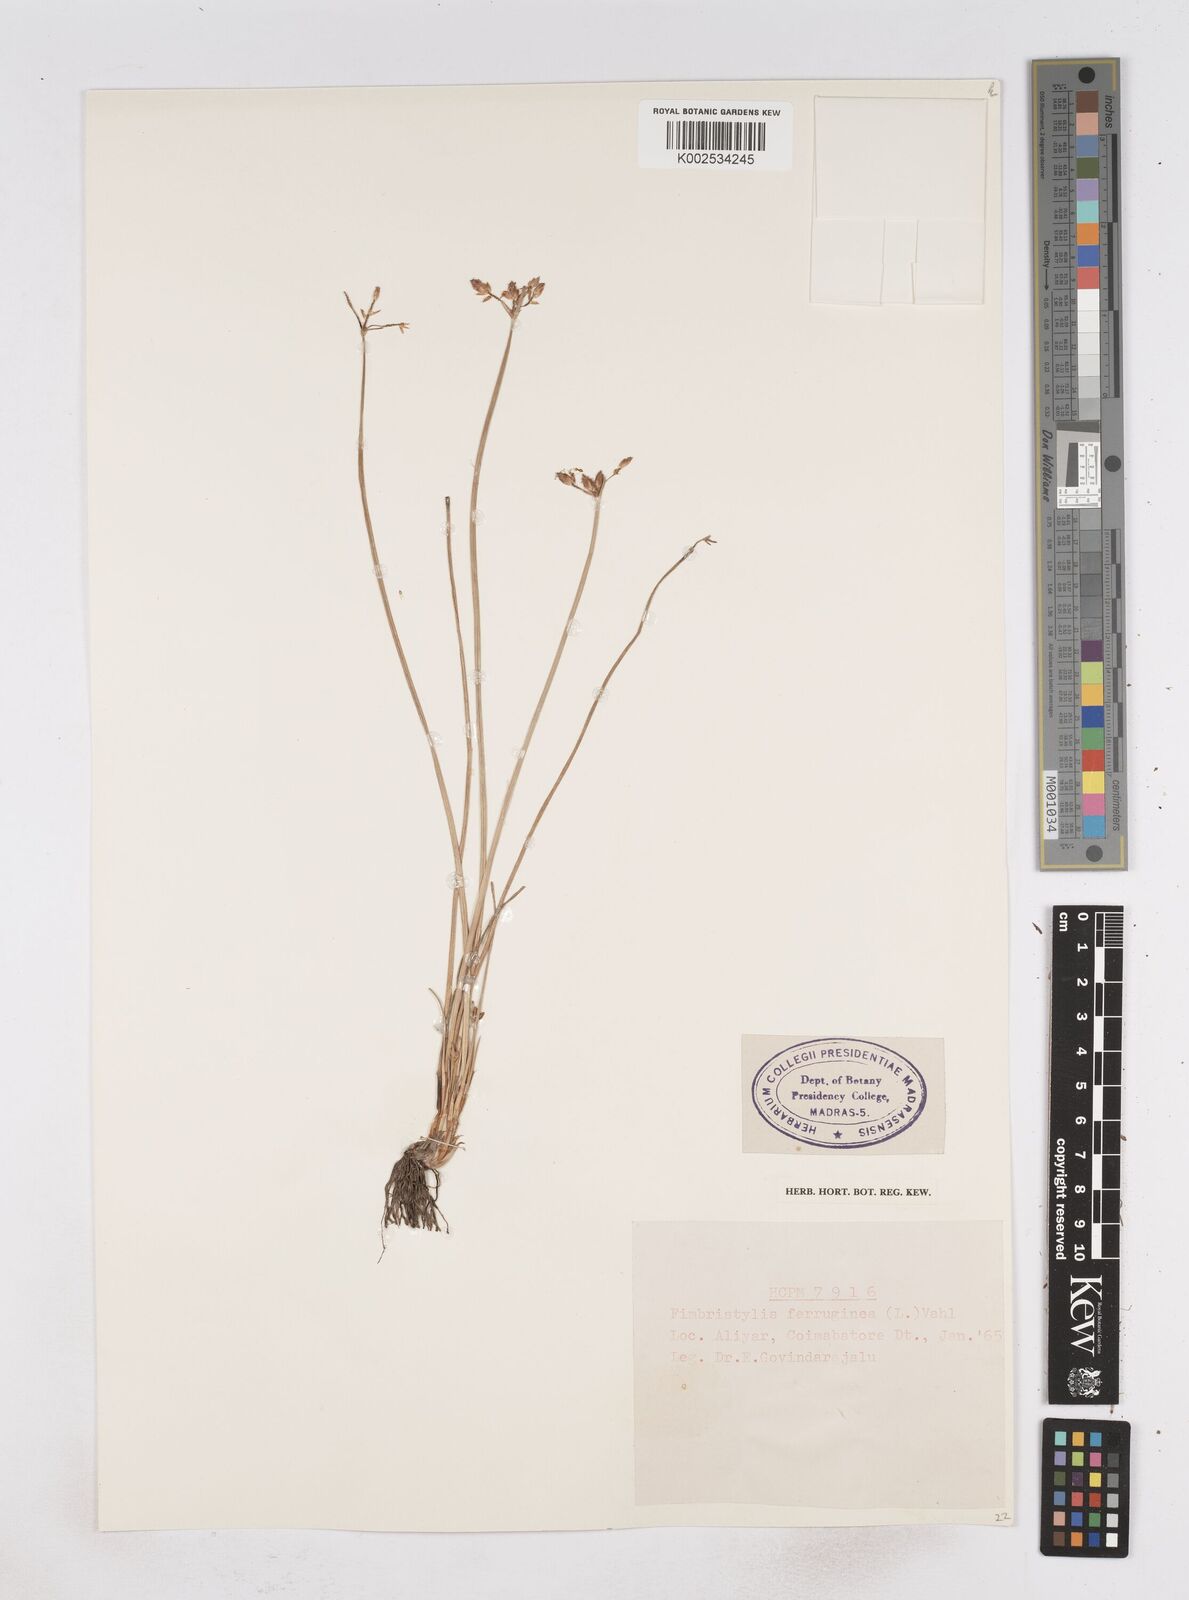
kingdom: Plantae
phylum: Tracheophyta
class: Liliopsida
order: Poales
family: Cyperaceae
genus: Fimbristylis
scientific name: Fimbristylis ferruginea
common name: West indian fimbry
